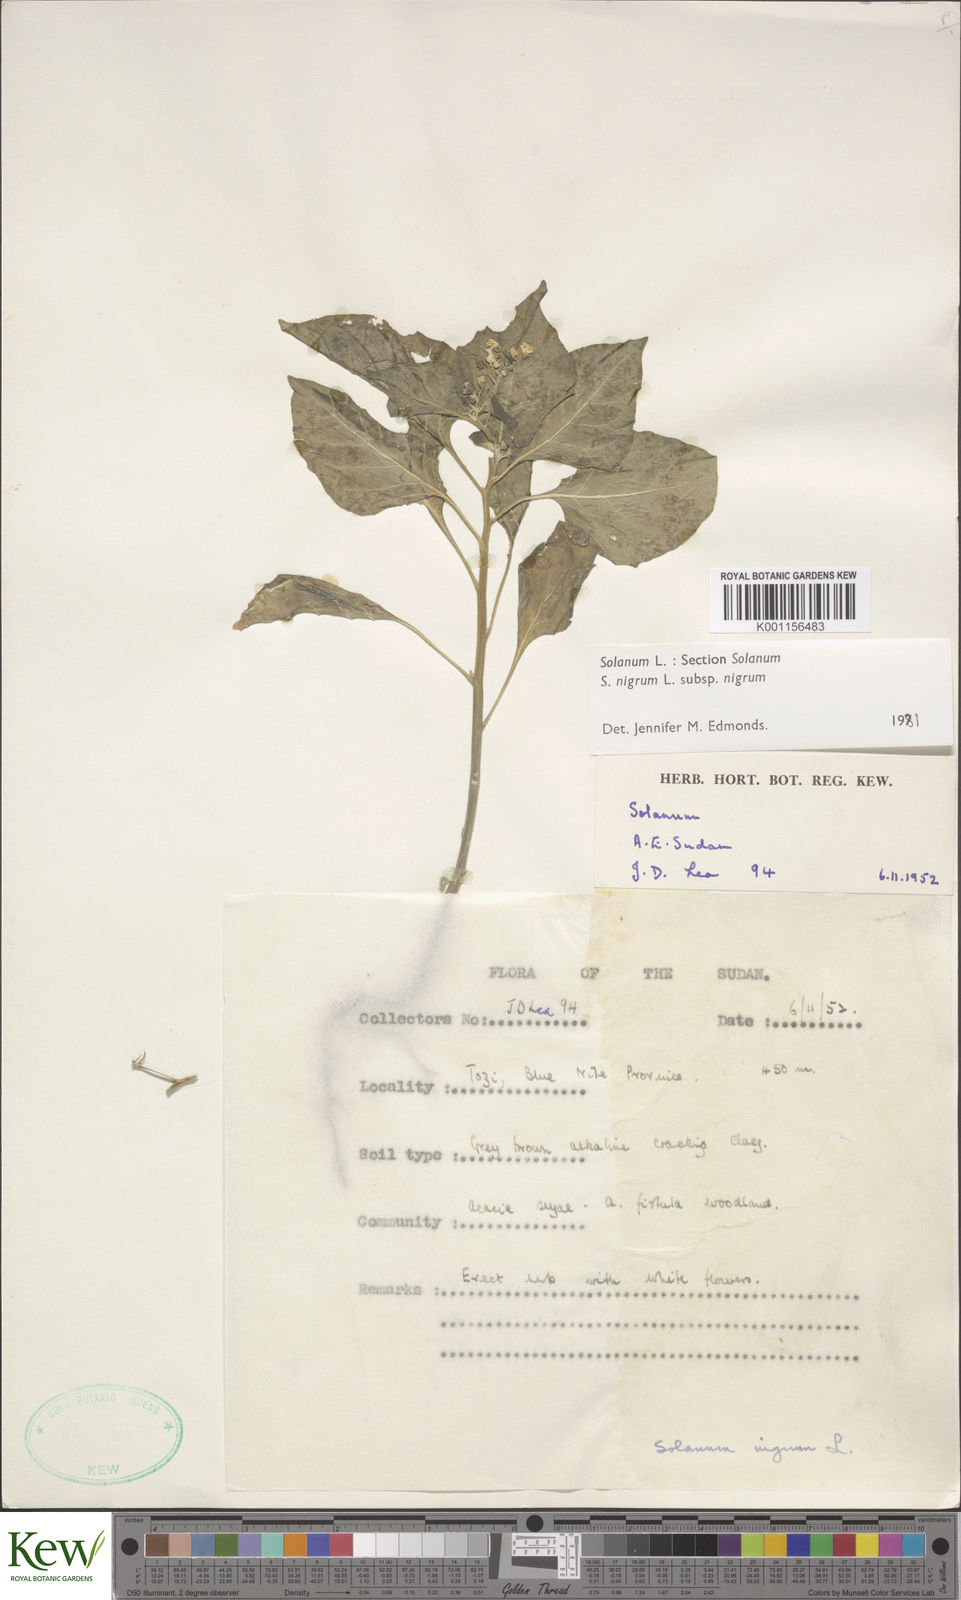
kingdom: Plantae
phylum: Tracheophyta
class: Magnoliopsida
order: Solanales
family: Solanaceae
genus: Solanum
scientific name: Solanum nigrum
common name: Black nightshade
